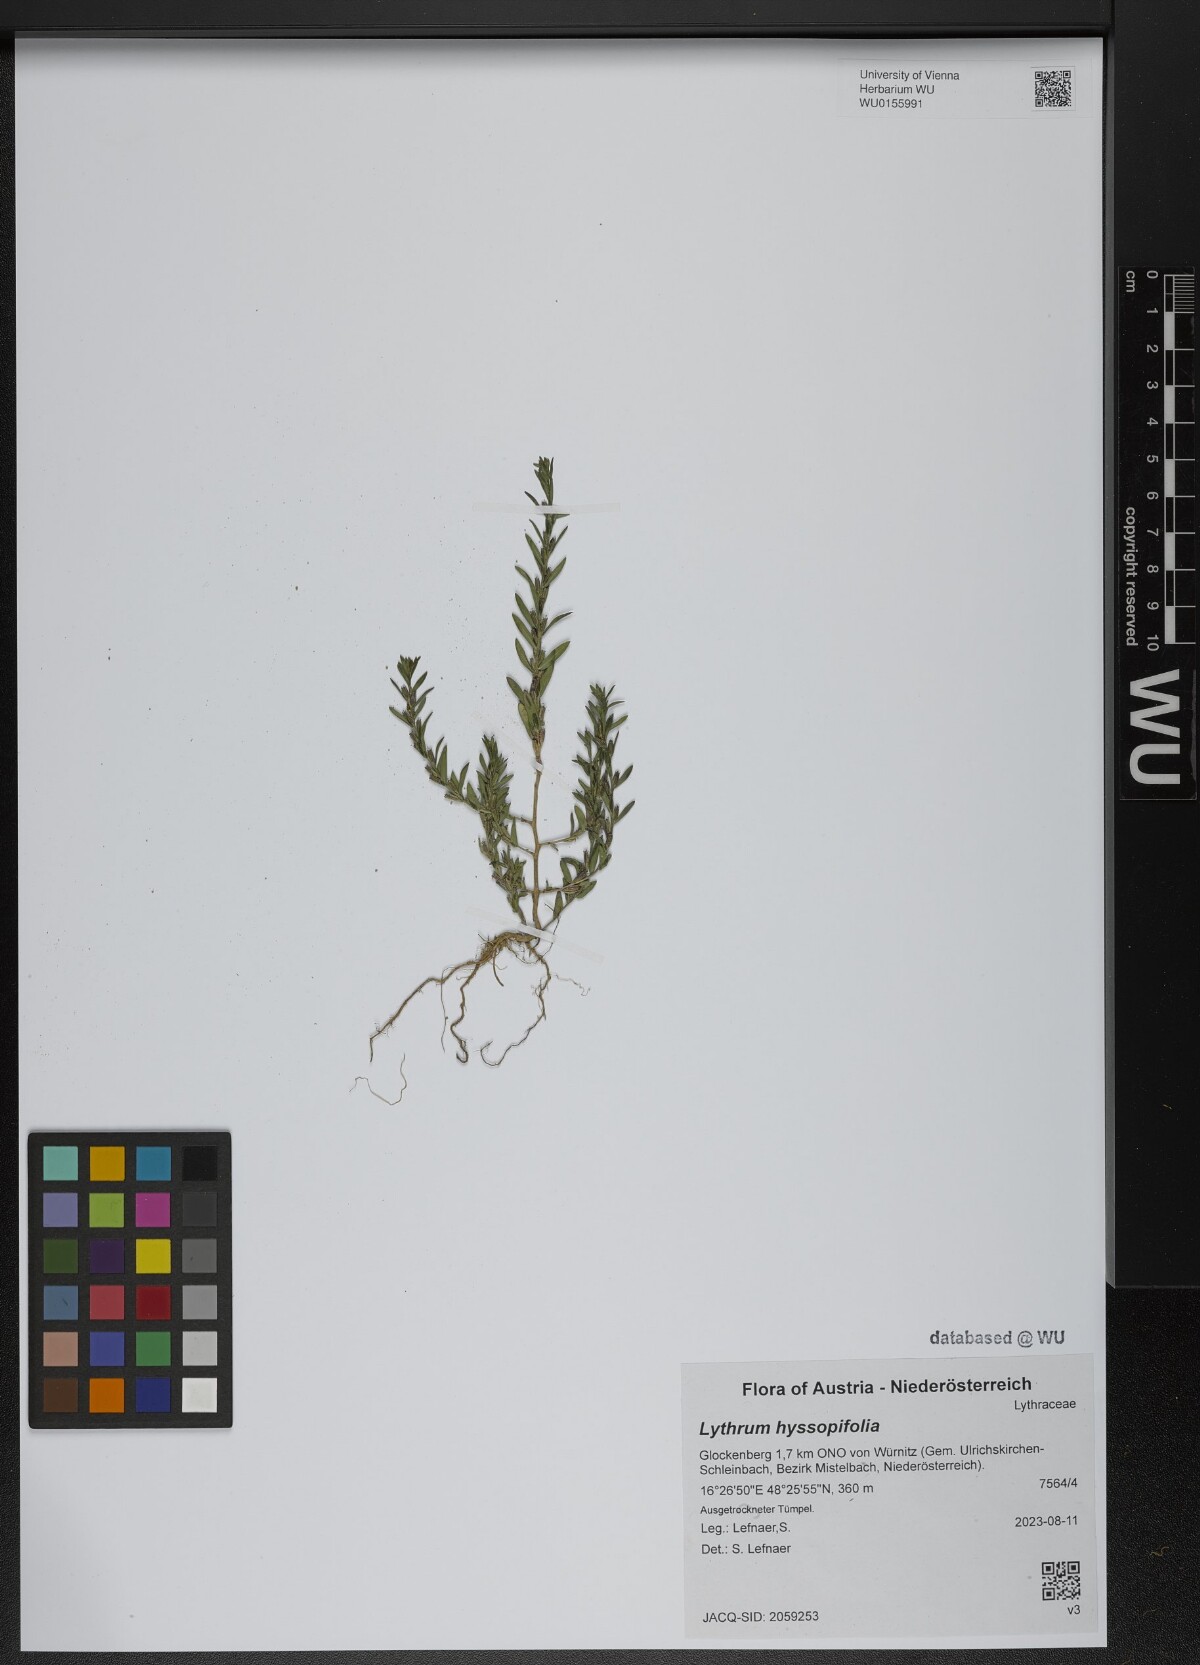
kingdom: Plantae
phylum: Tracheophyta
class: Magnoliopsida
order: Myrtales
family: Lythraceae
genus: Lythrum
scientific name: Lythrum hyssopifolia
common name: Grass-poly
